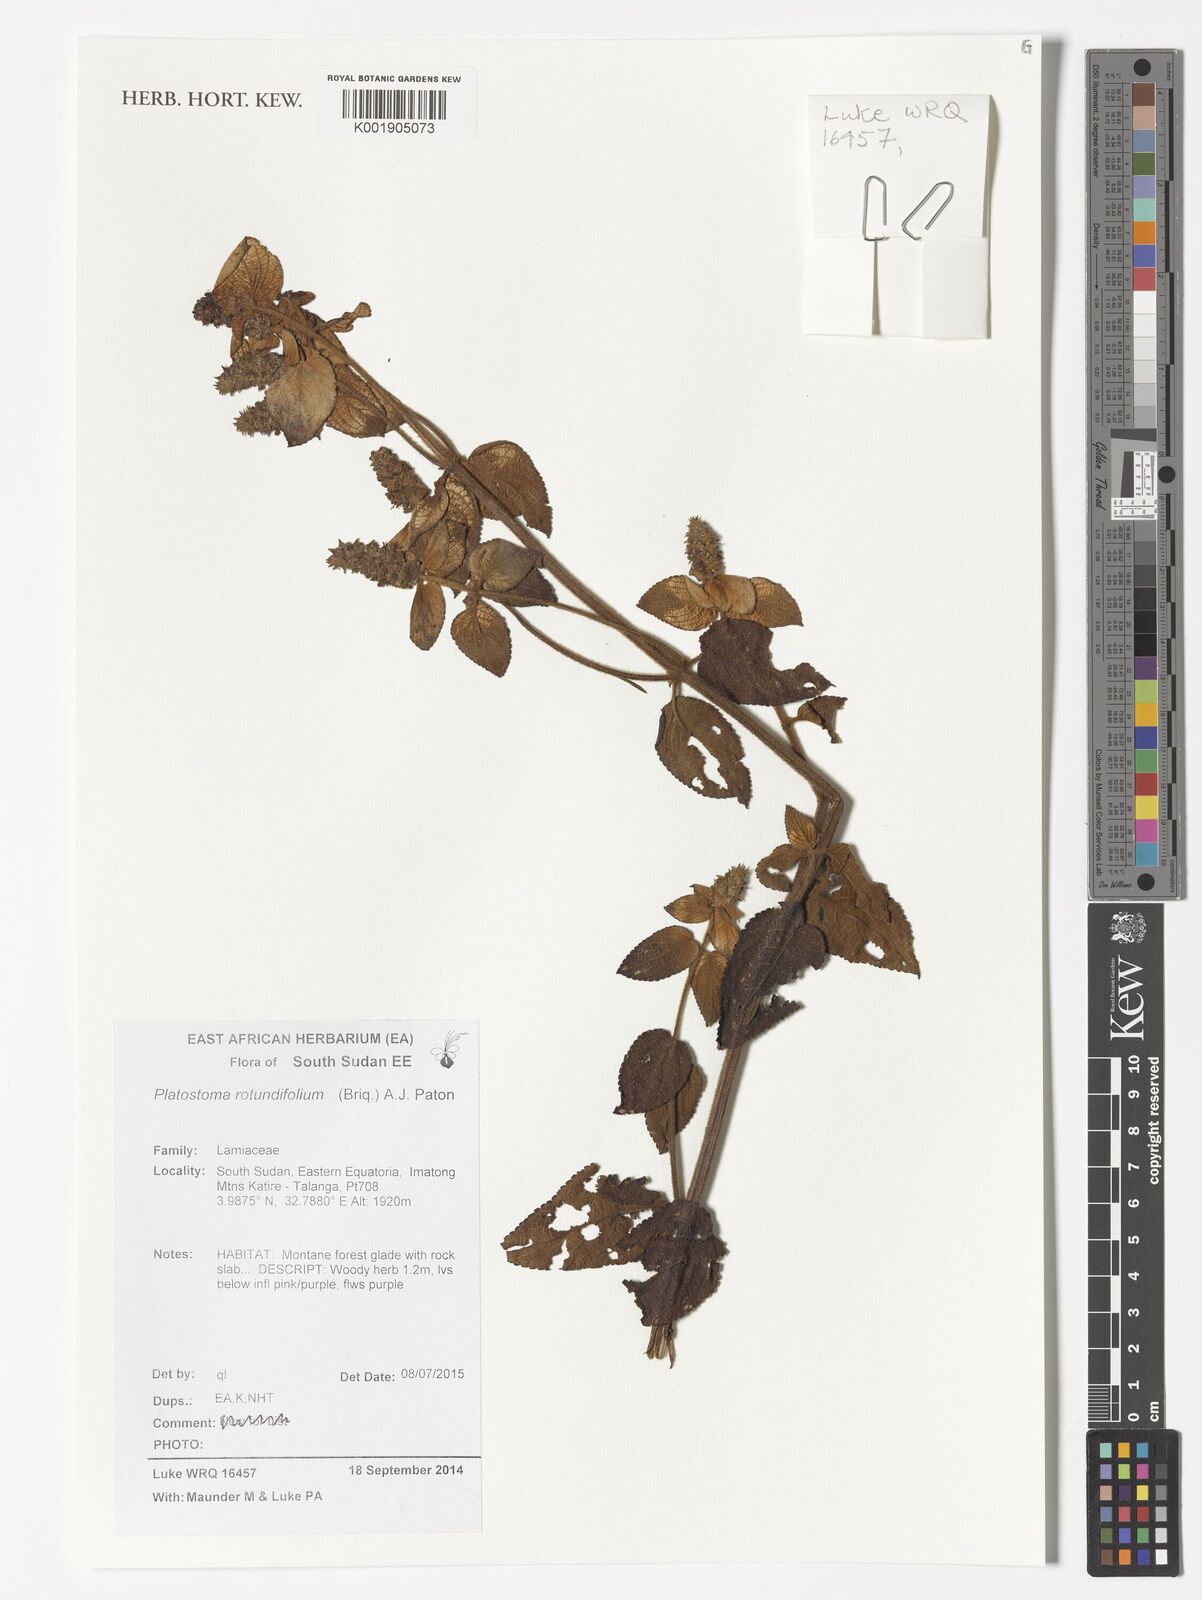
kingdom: Plantae
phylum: Tracheophyta
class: Magnoliopsida
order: Lamiales
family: Lamiaceae
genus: Platostoma
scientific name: Platostoma rotundifolium
